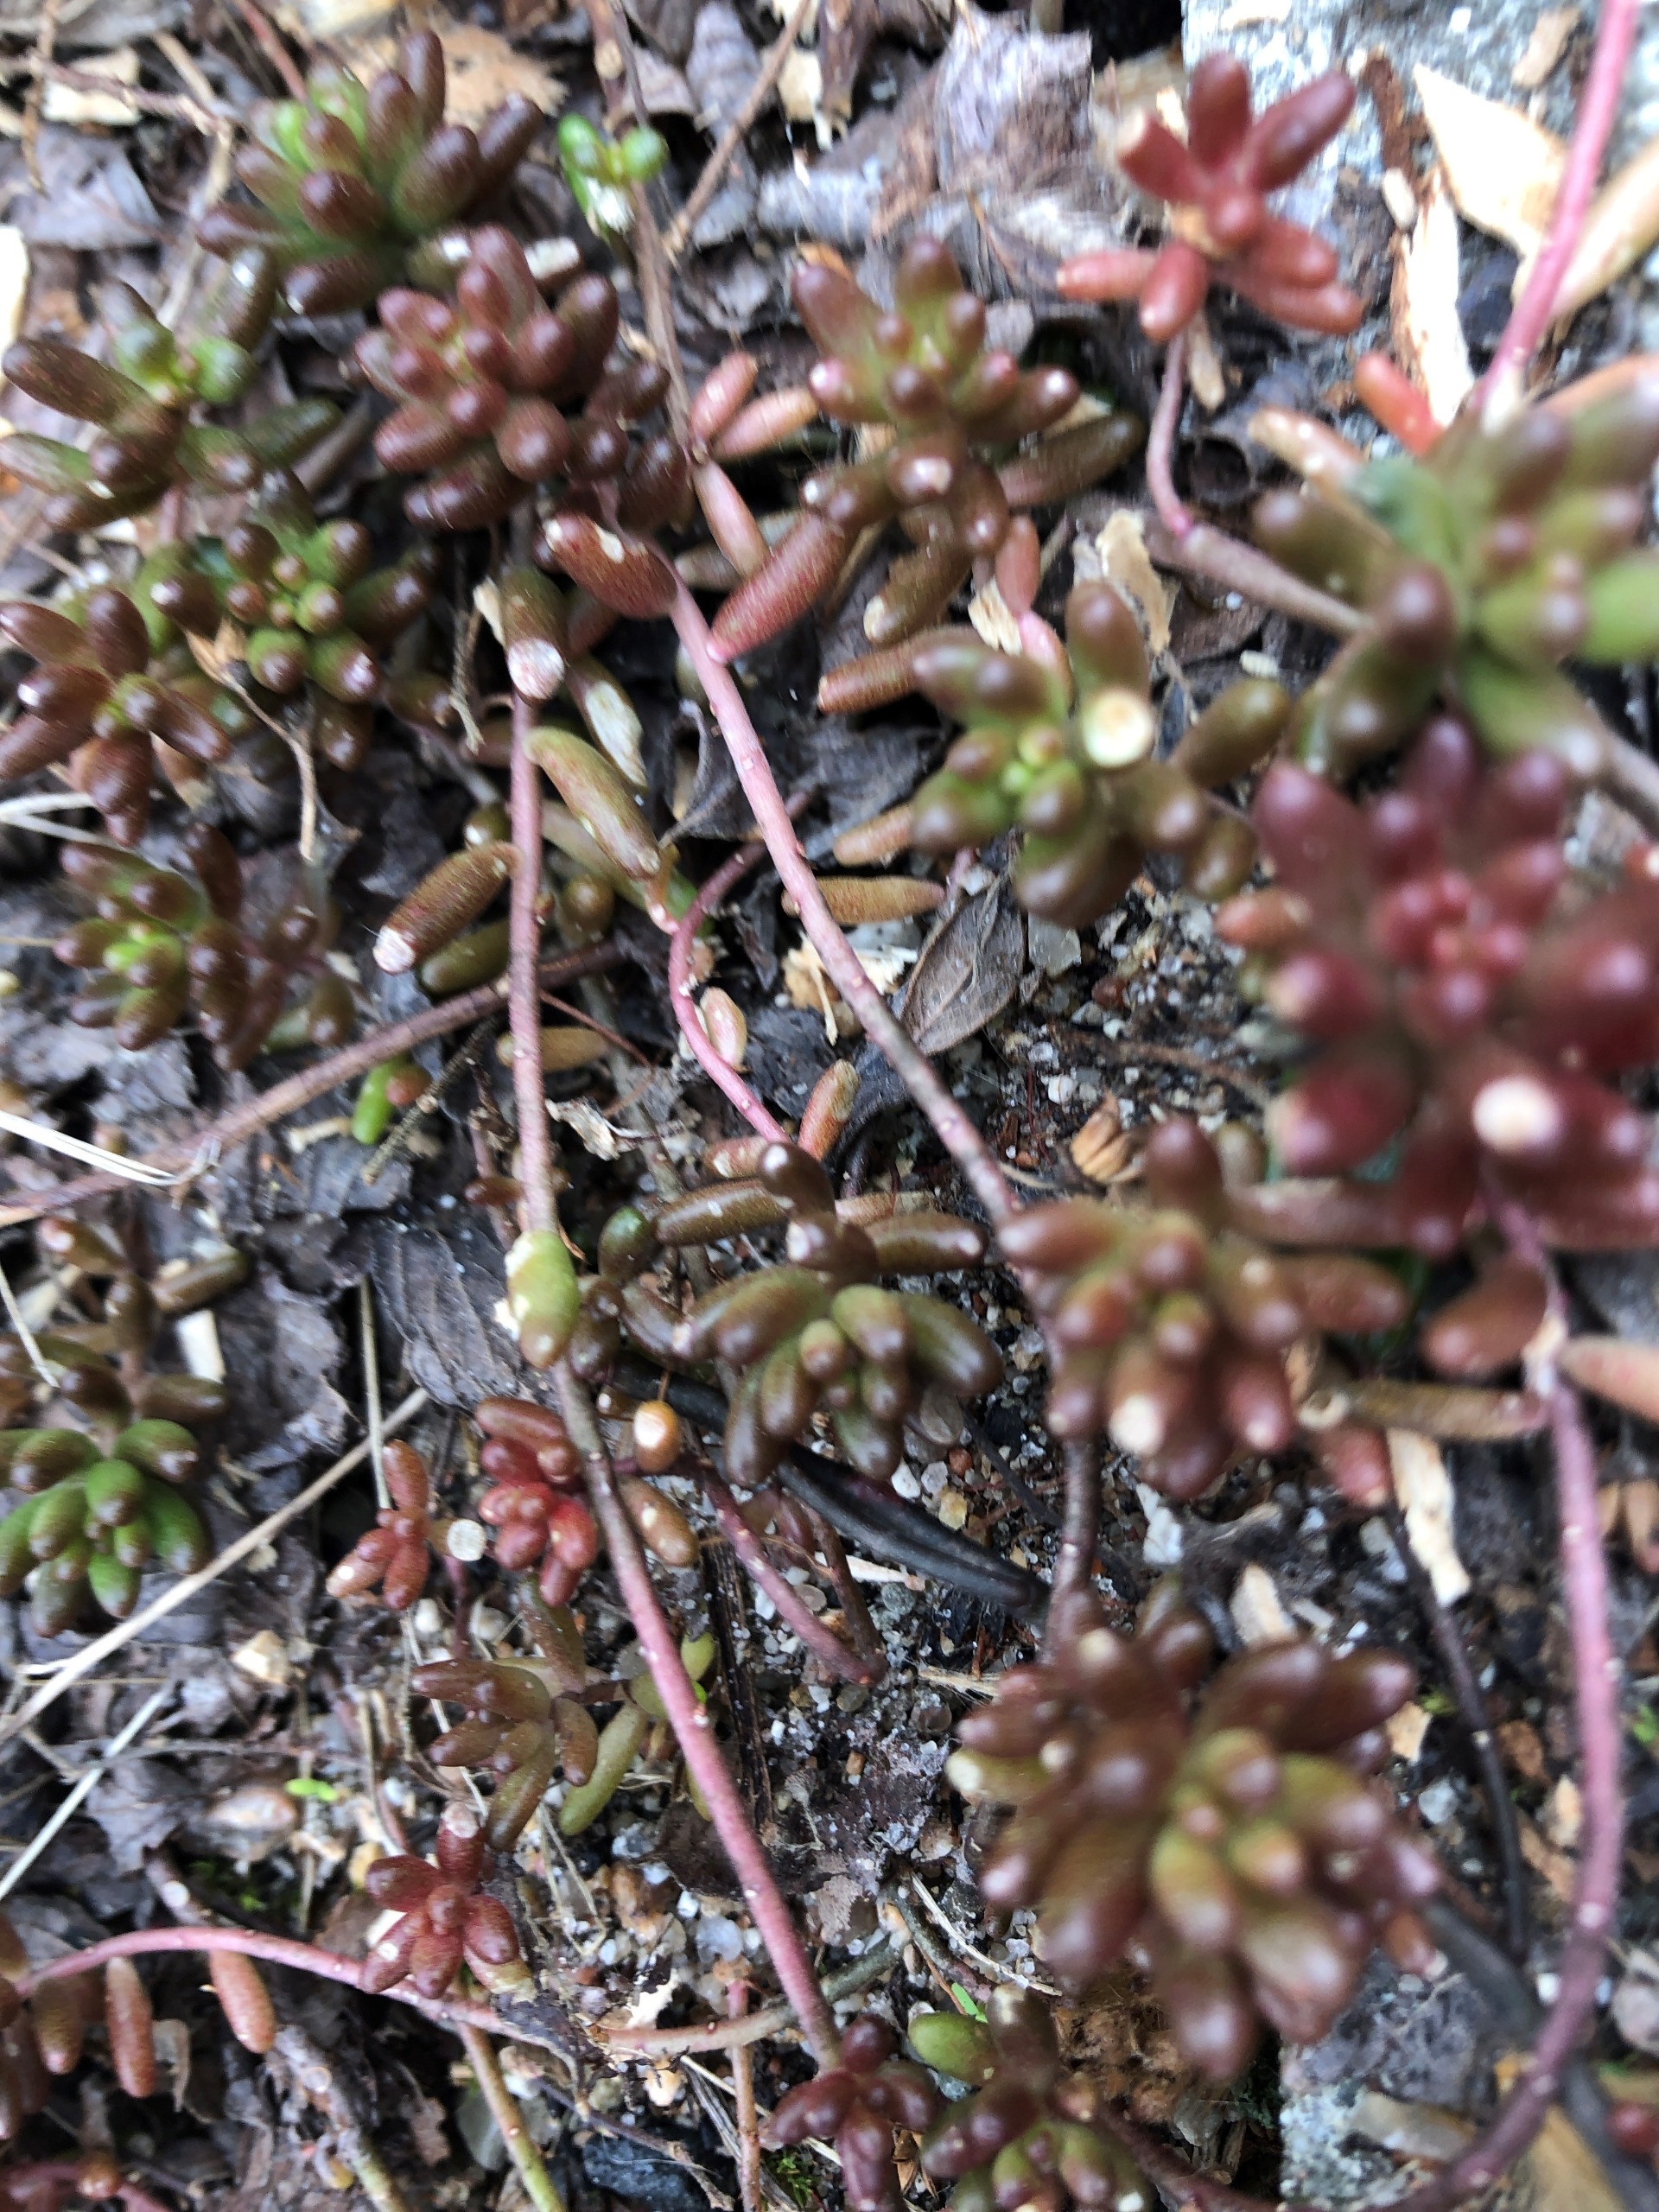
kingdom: Plantae
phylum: Tracheophyta
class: Magnoliopsida
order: Saxifragales
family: Crassulaceae
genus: Sedum
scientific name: Sedum album
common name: Hvid stenurt
